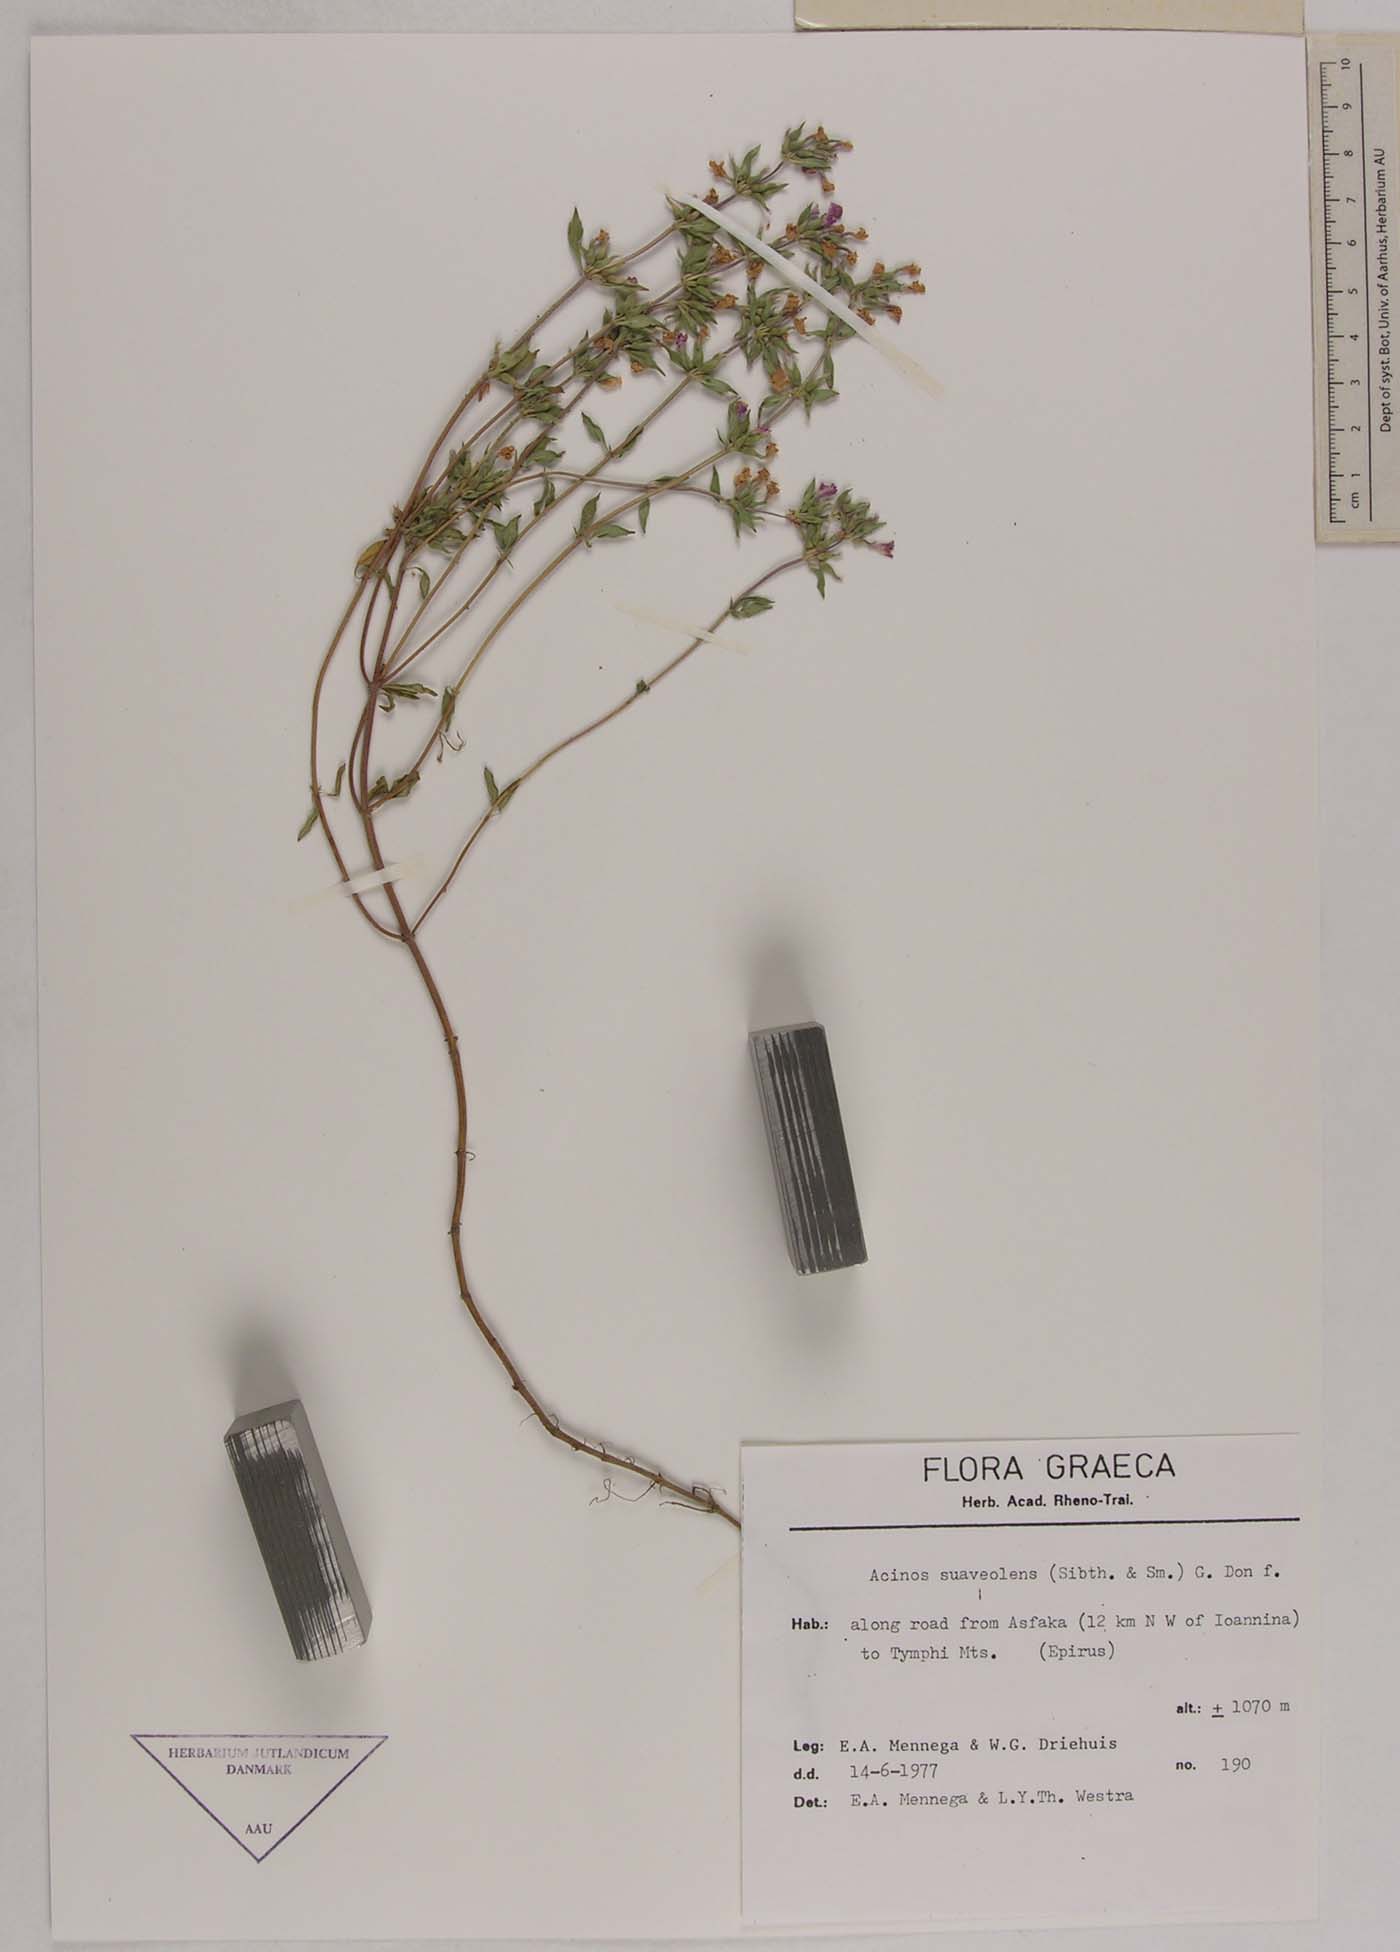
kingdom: Plantae
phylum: Tracheophyta
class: Magnoliopsida
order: Lamiales
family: Lamiaceae
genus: Clinopodium
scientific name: Clinopodium suaveolens
